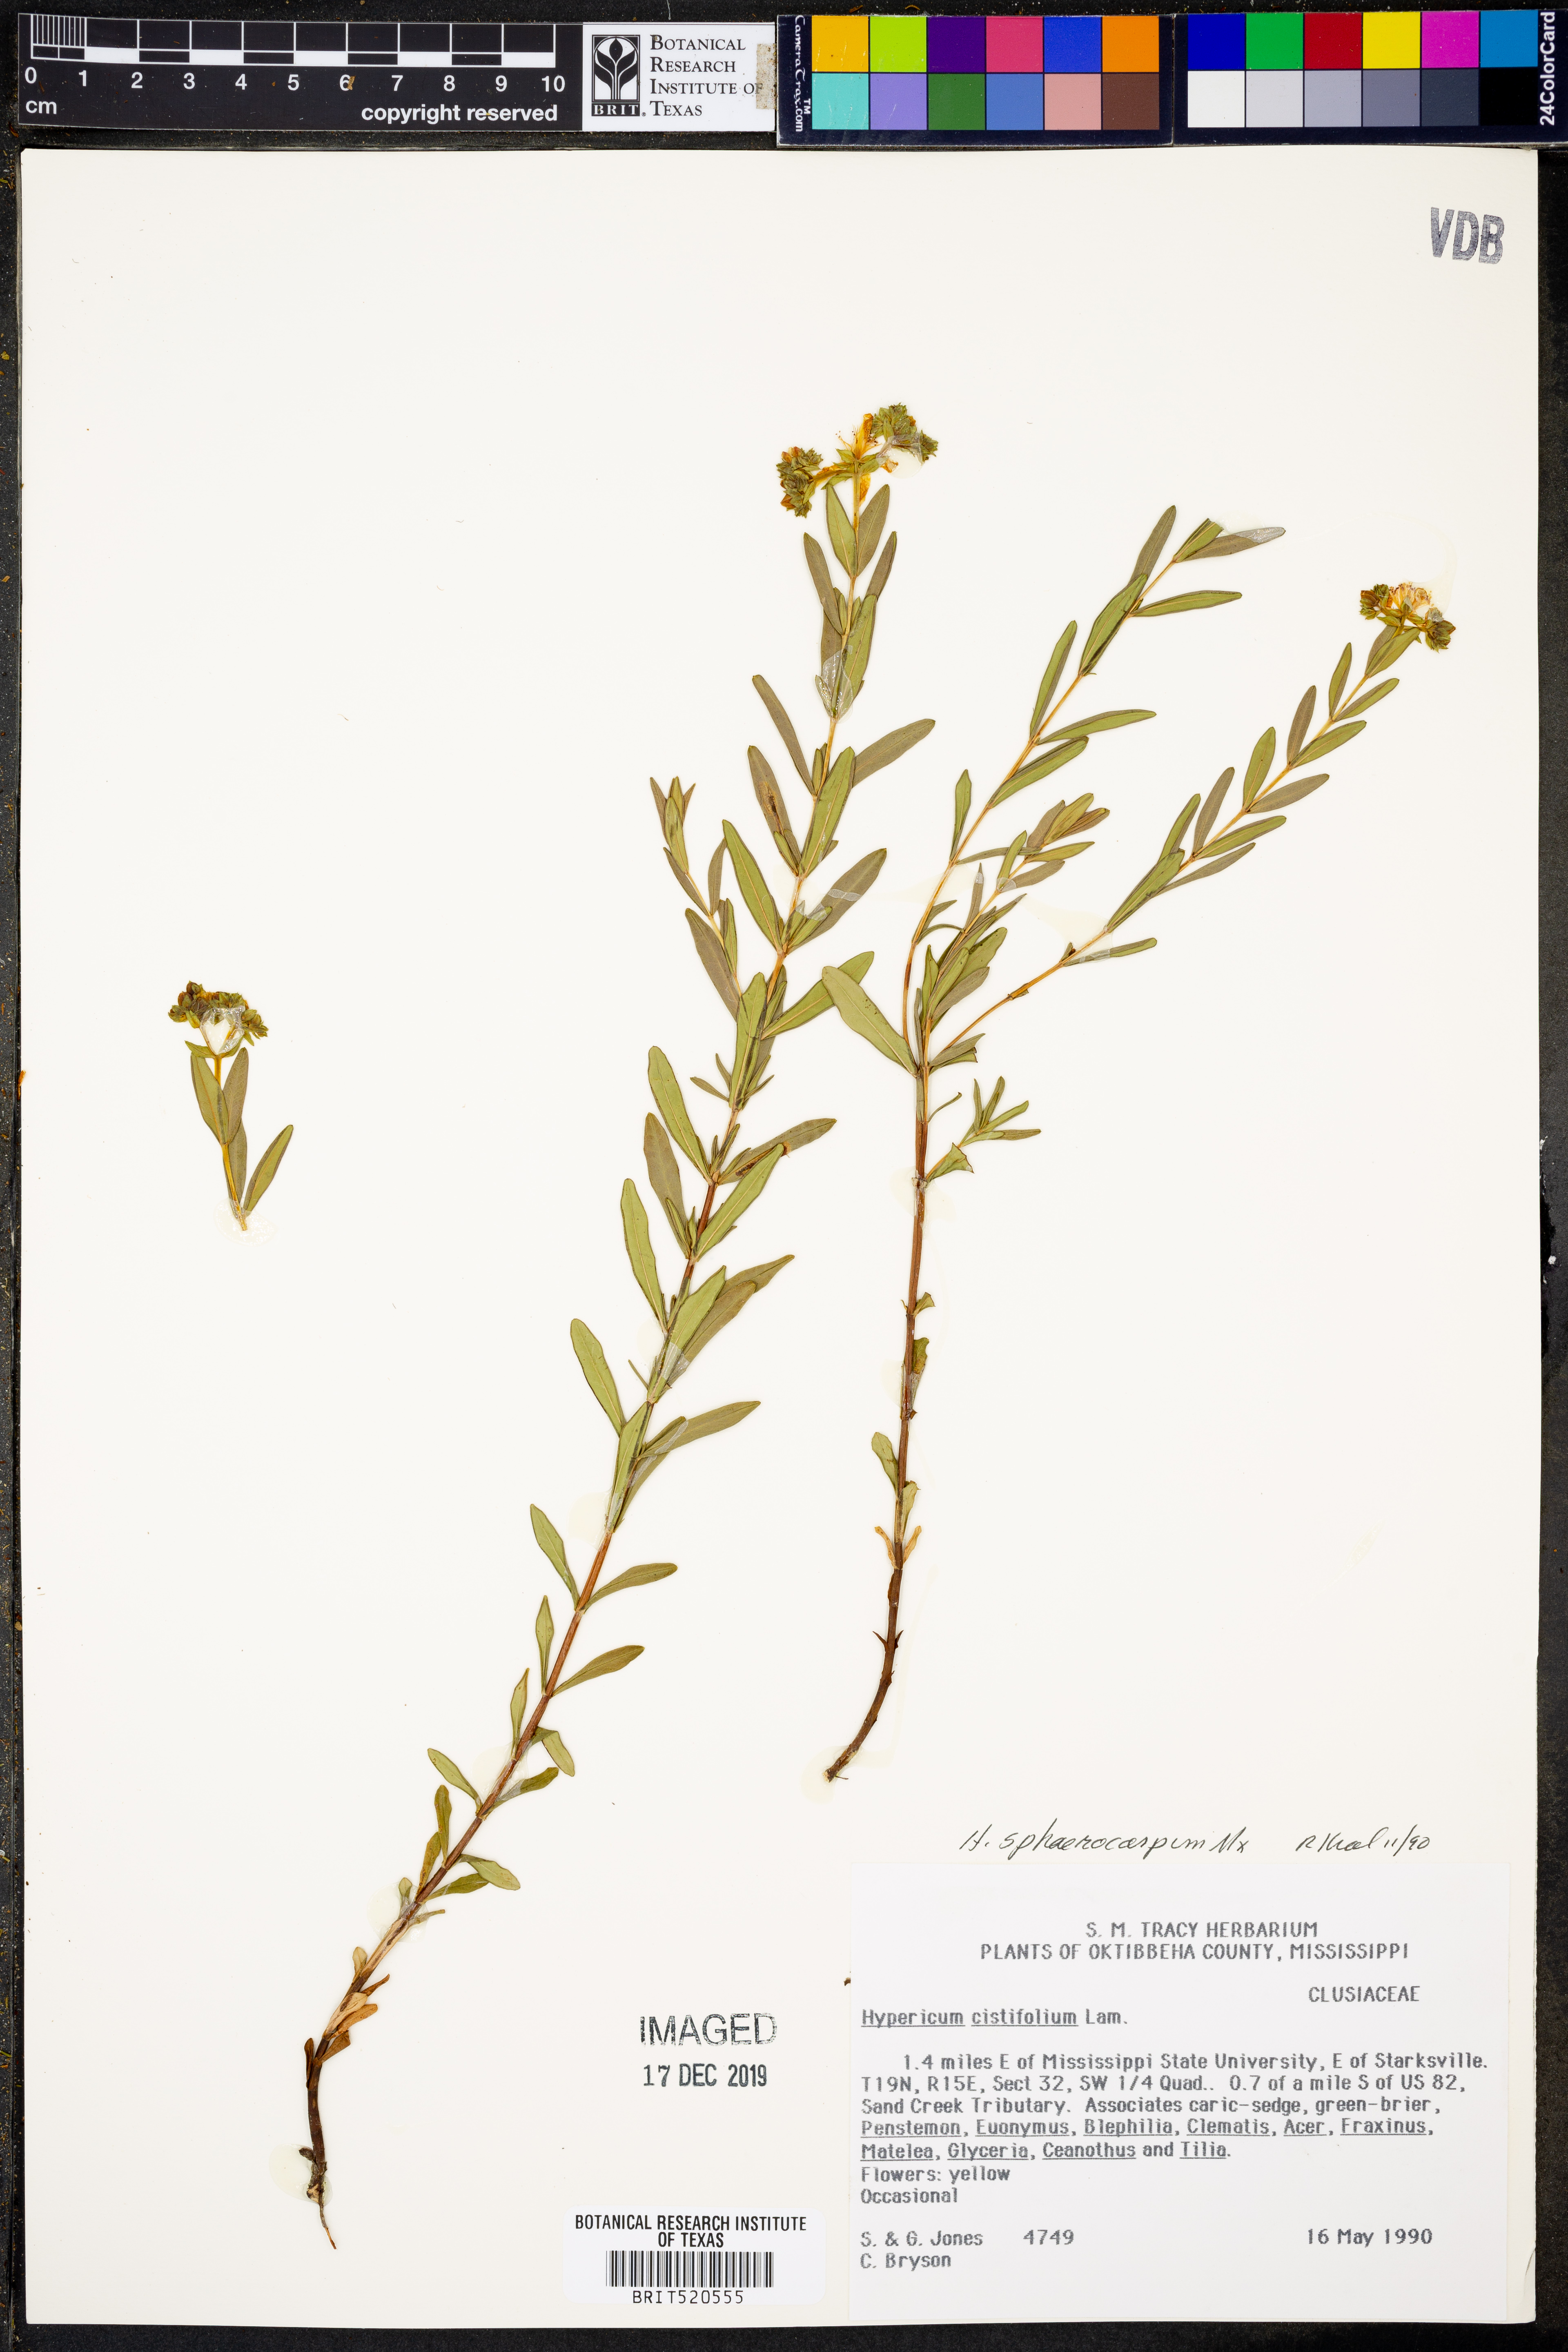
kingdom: Plantae
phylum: Tracheophyta
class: Magnoliopsida
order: Malpighiales
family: Hypericaceae
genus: Hypericum
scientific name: Hypericum sphaerocarpum
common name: Round-fruited st. john's-wort
